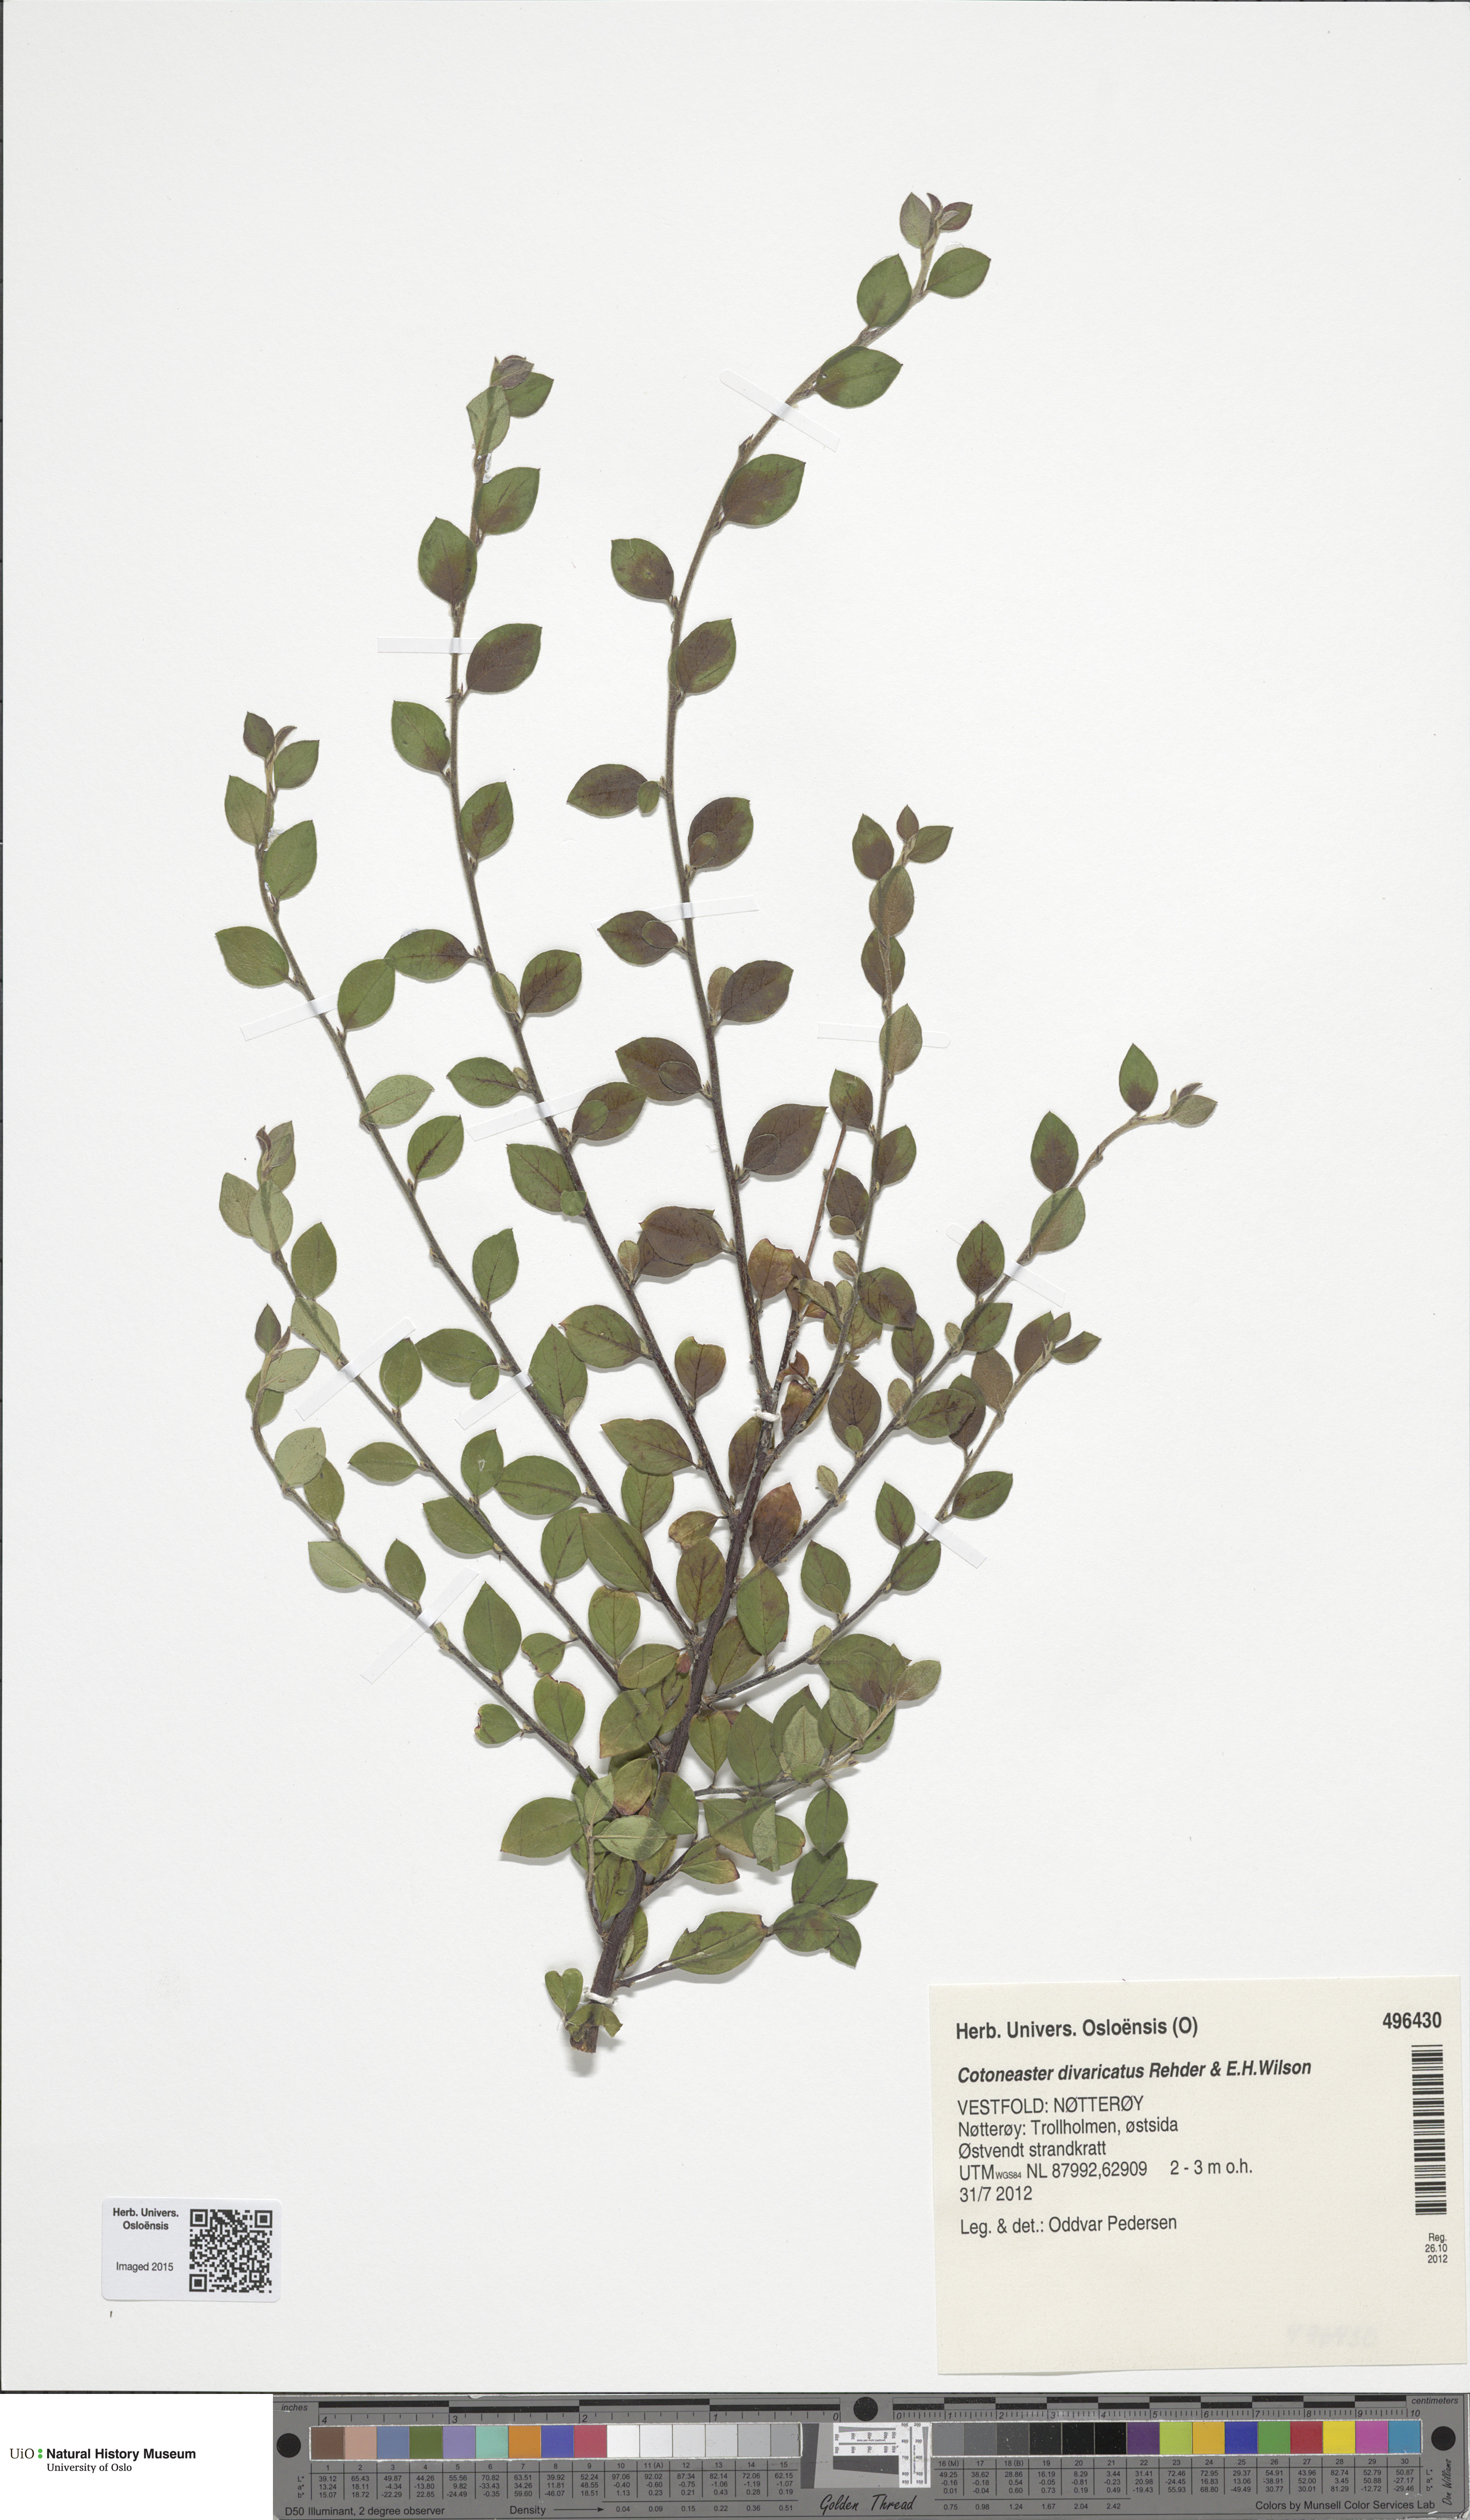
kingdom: Plantae
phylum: Tracheophyta
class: Magnoliopsida
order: Rosales
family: Rosaceae
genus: Cotoneaster
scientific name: Cotoneaster divaricatus
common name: Spreading cotoneaster
